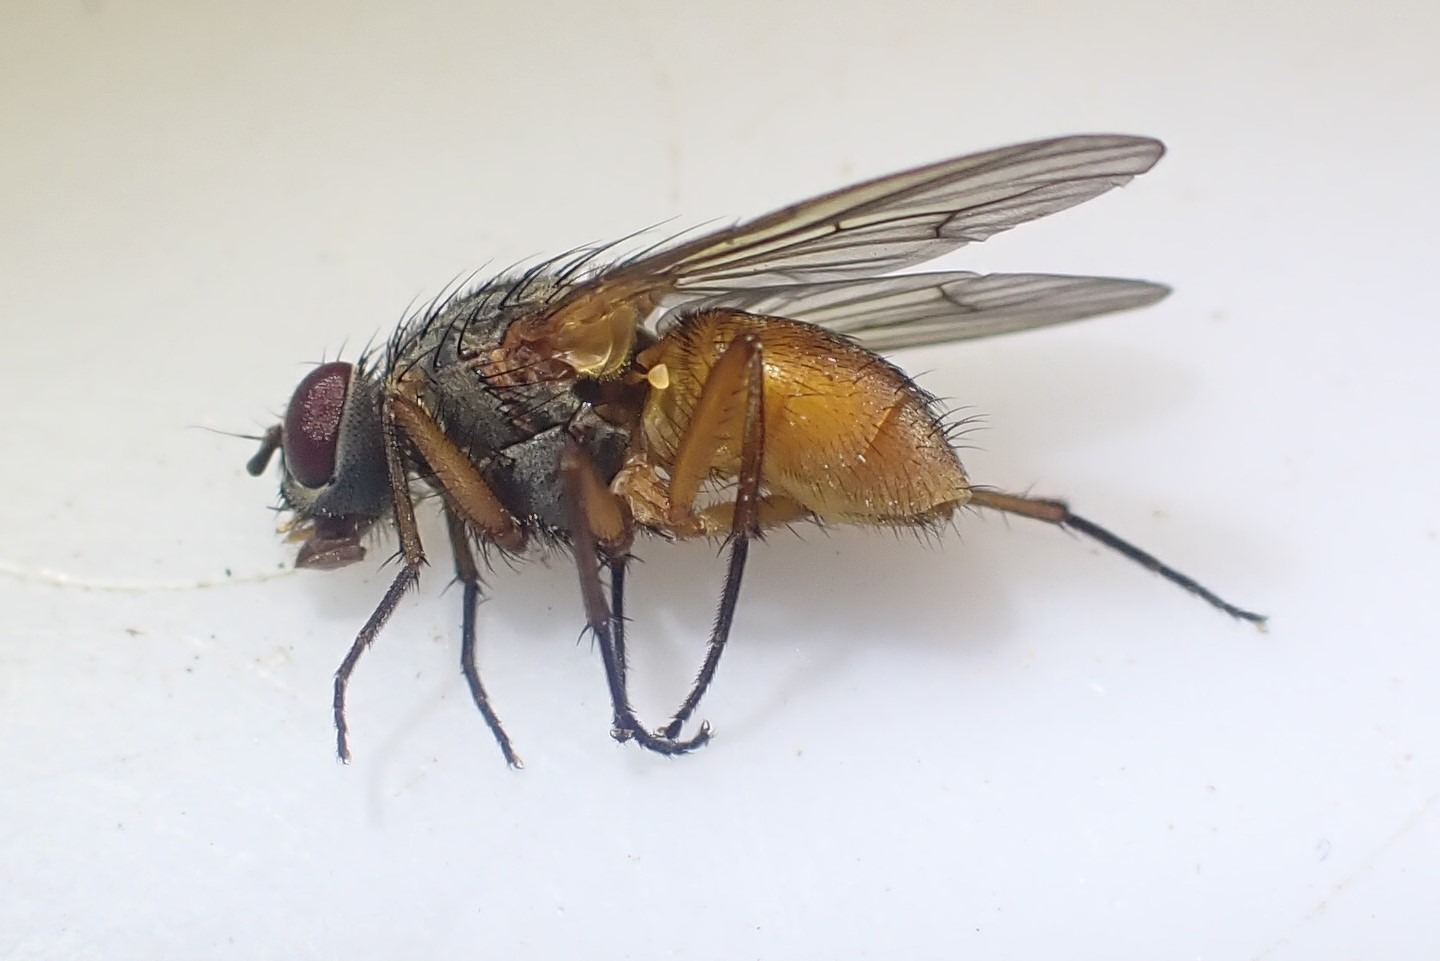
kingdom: Animalia
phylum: Arthropoda
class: Insecta
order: Diptera
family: Muscidae
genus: Phaonia
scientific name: Phaonia subventa
